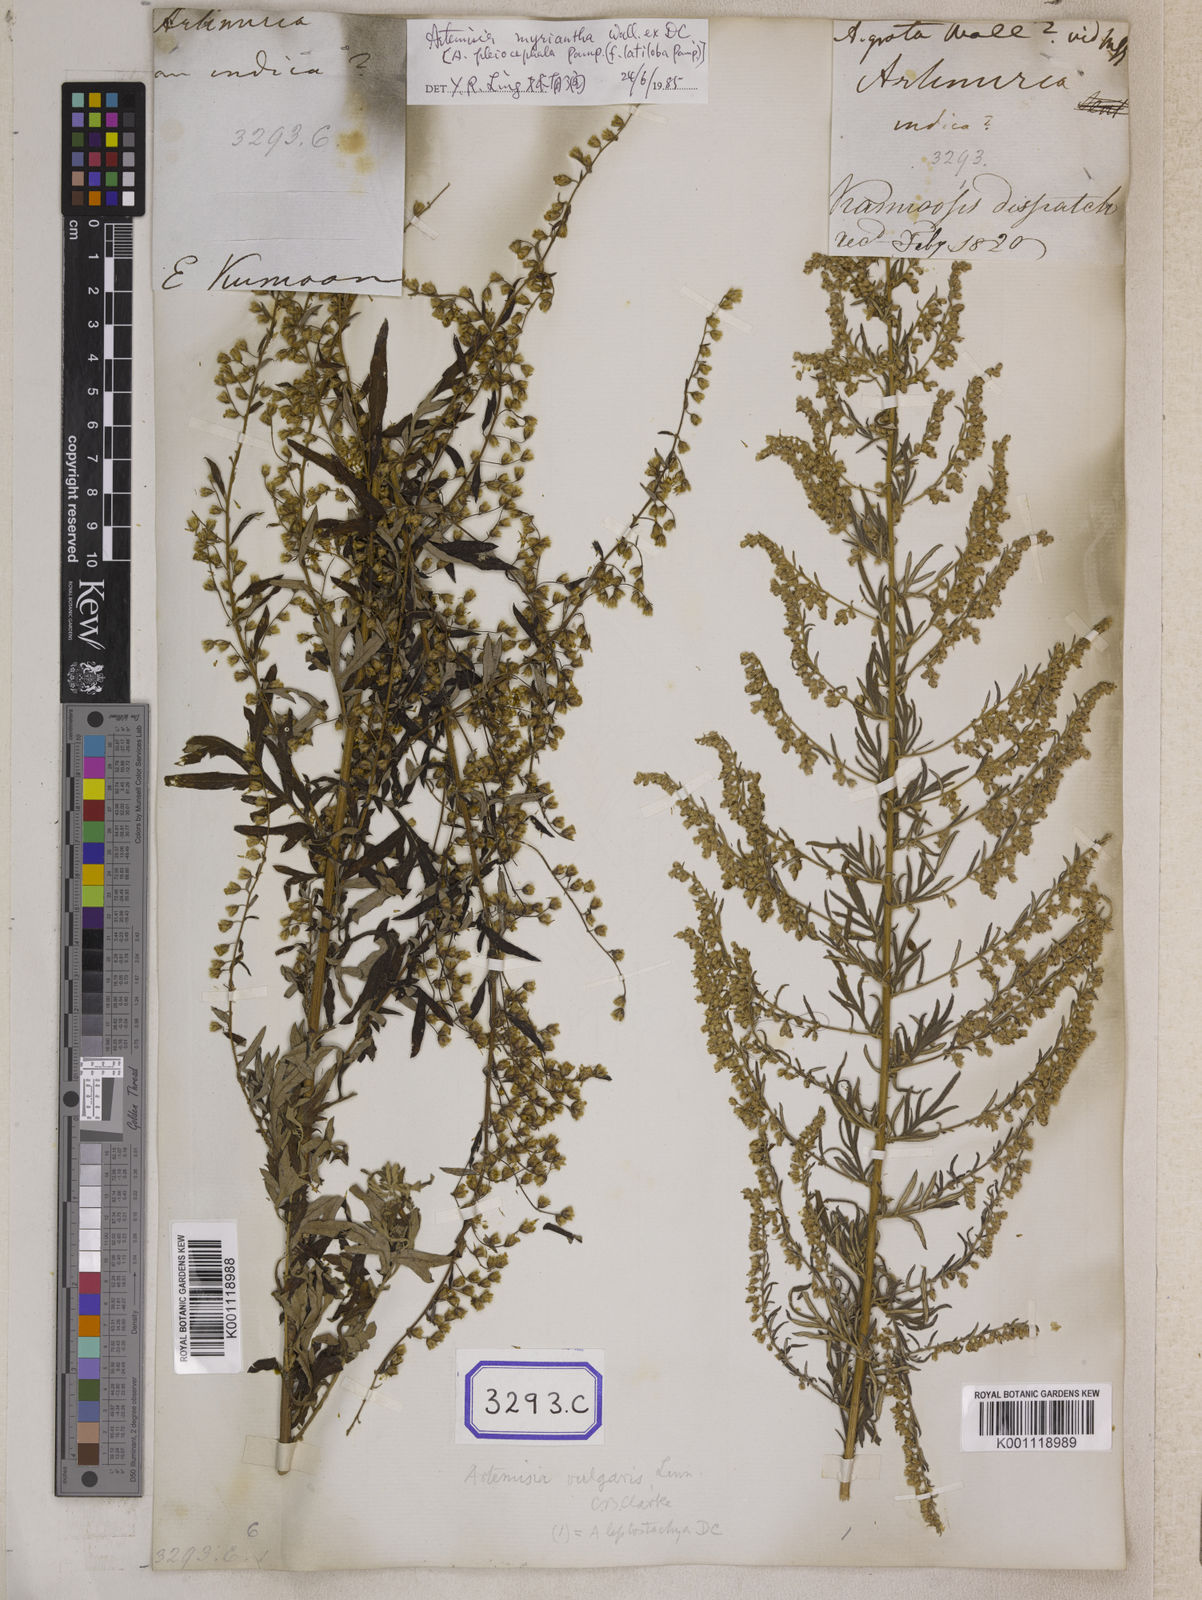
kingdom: Plantae
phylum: Tracheophyta
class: Magnoliopsida
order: Asterales
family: Asteraceae
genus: Artemisia
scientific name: Artemisia indica
